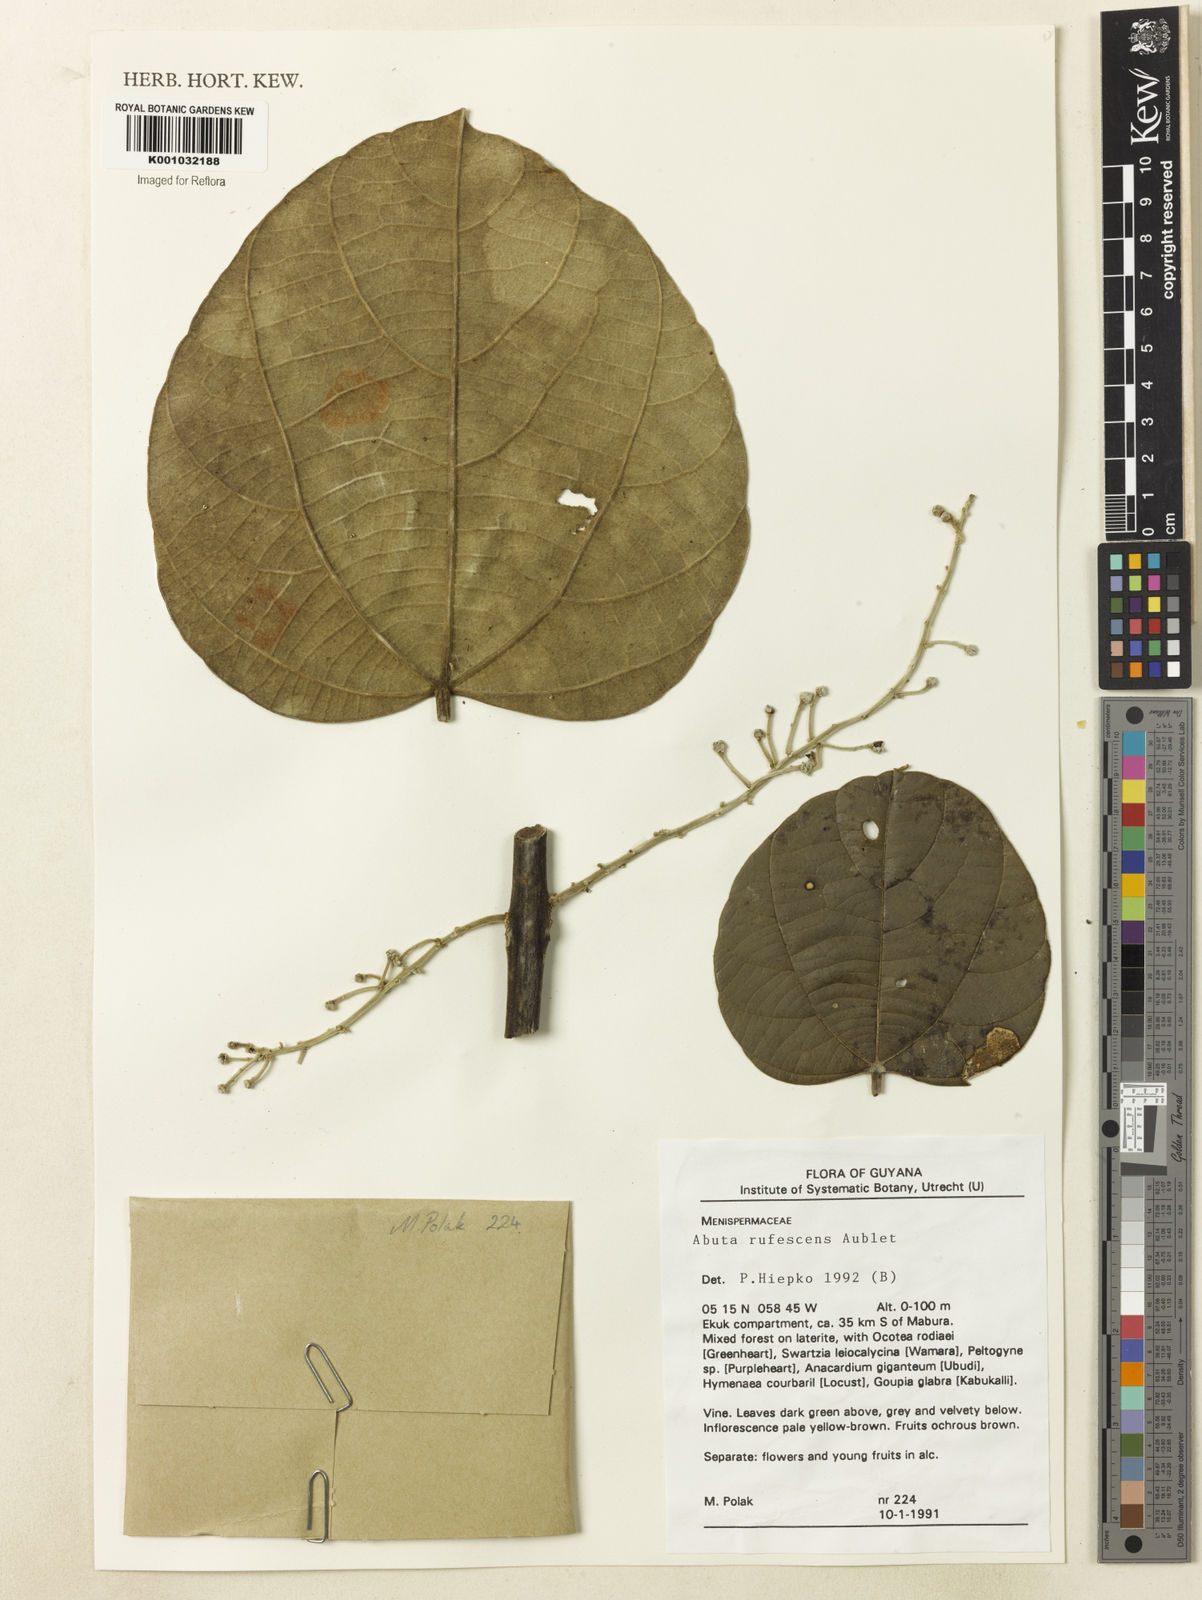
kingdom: Plantae
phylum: Tracheophyta
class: Magnoliopsida
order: Ranunculales
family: Menispermaceae
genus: Abuta
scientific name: Abuta rufescens
